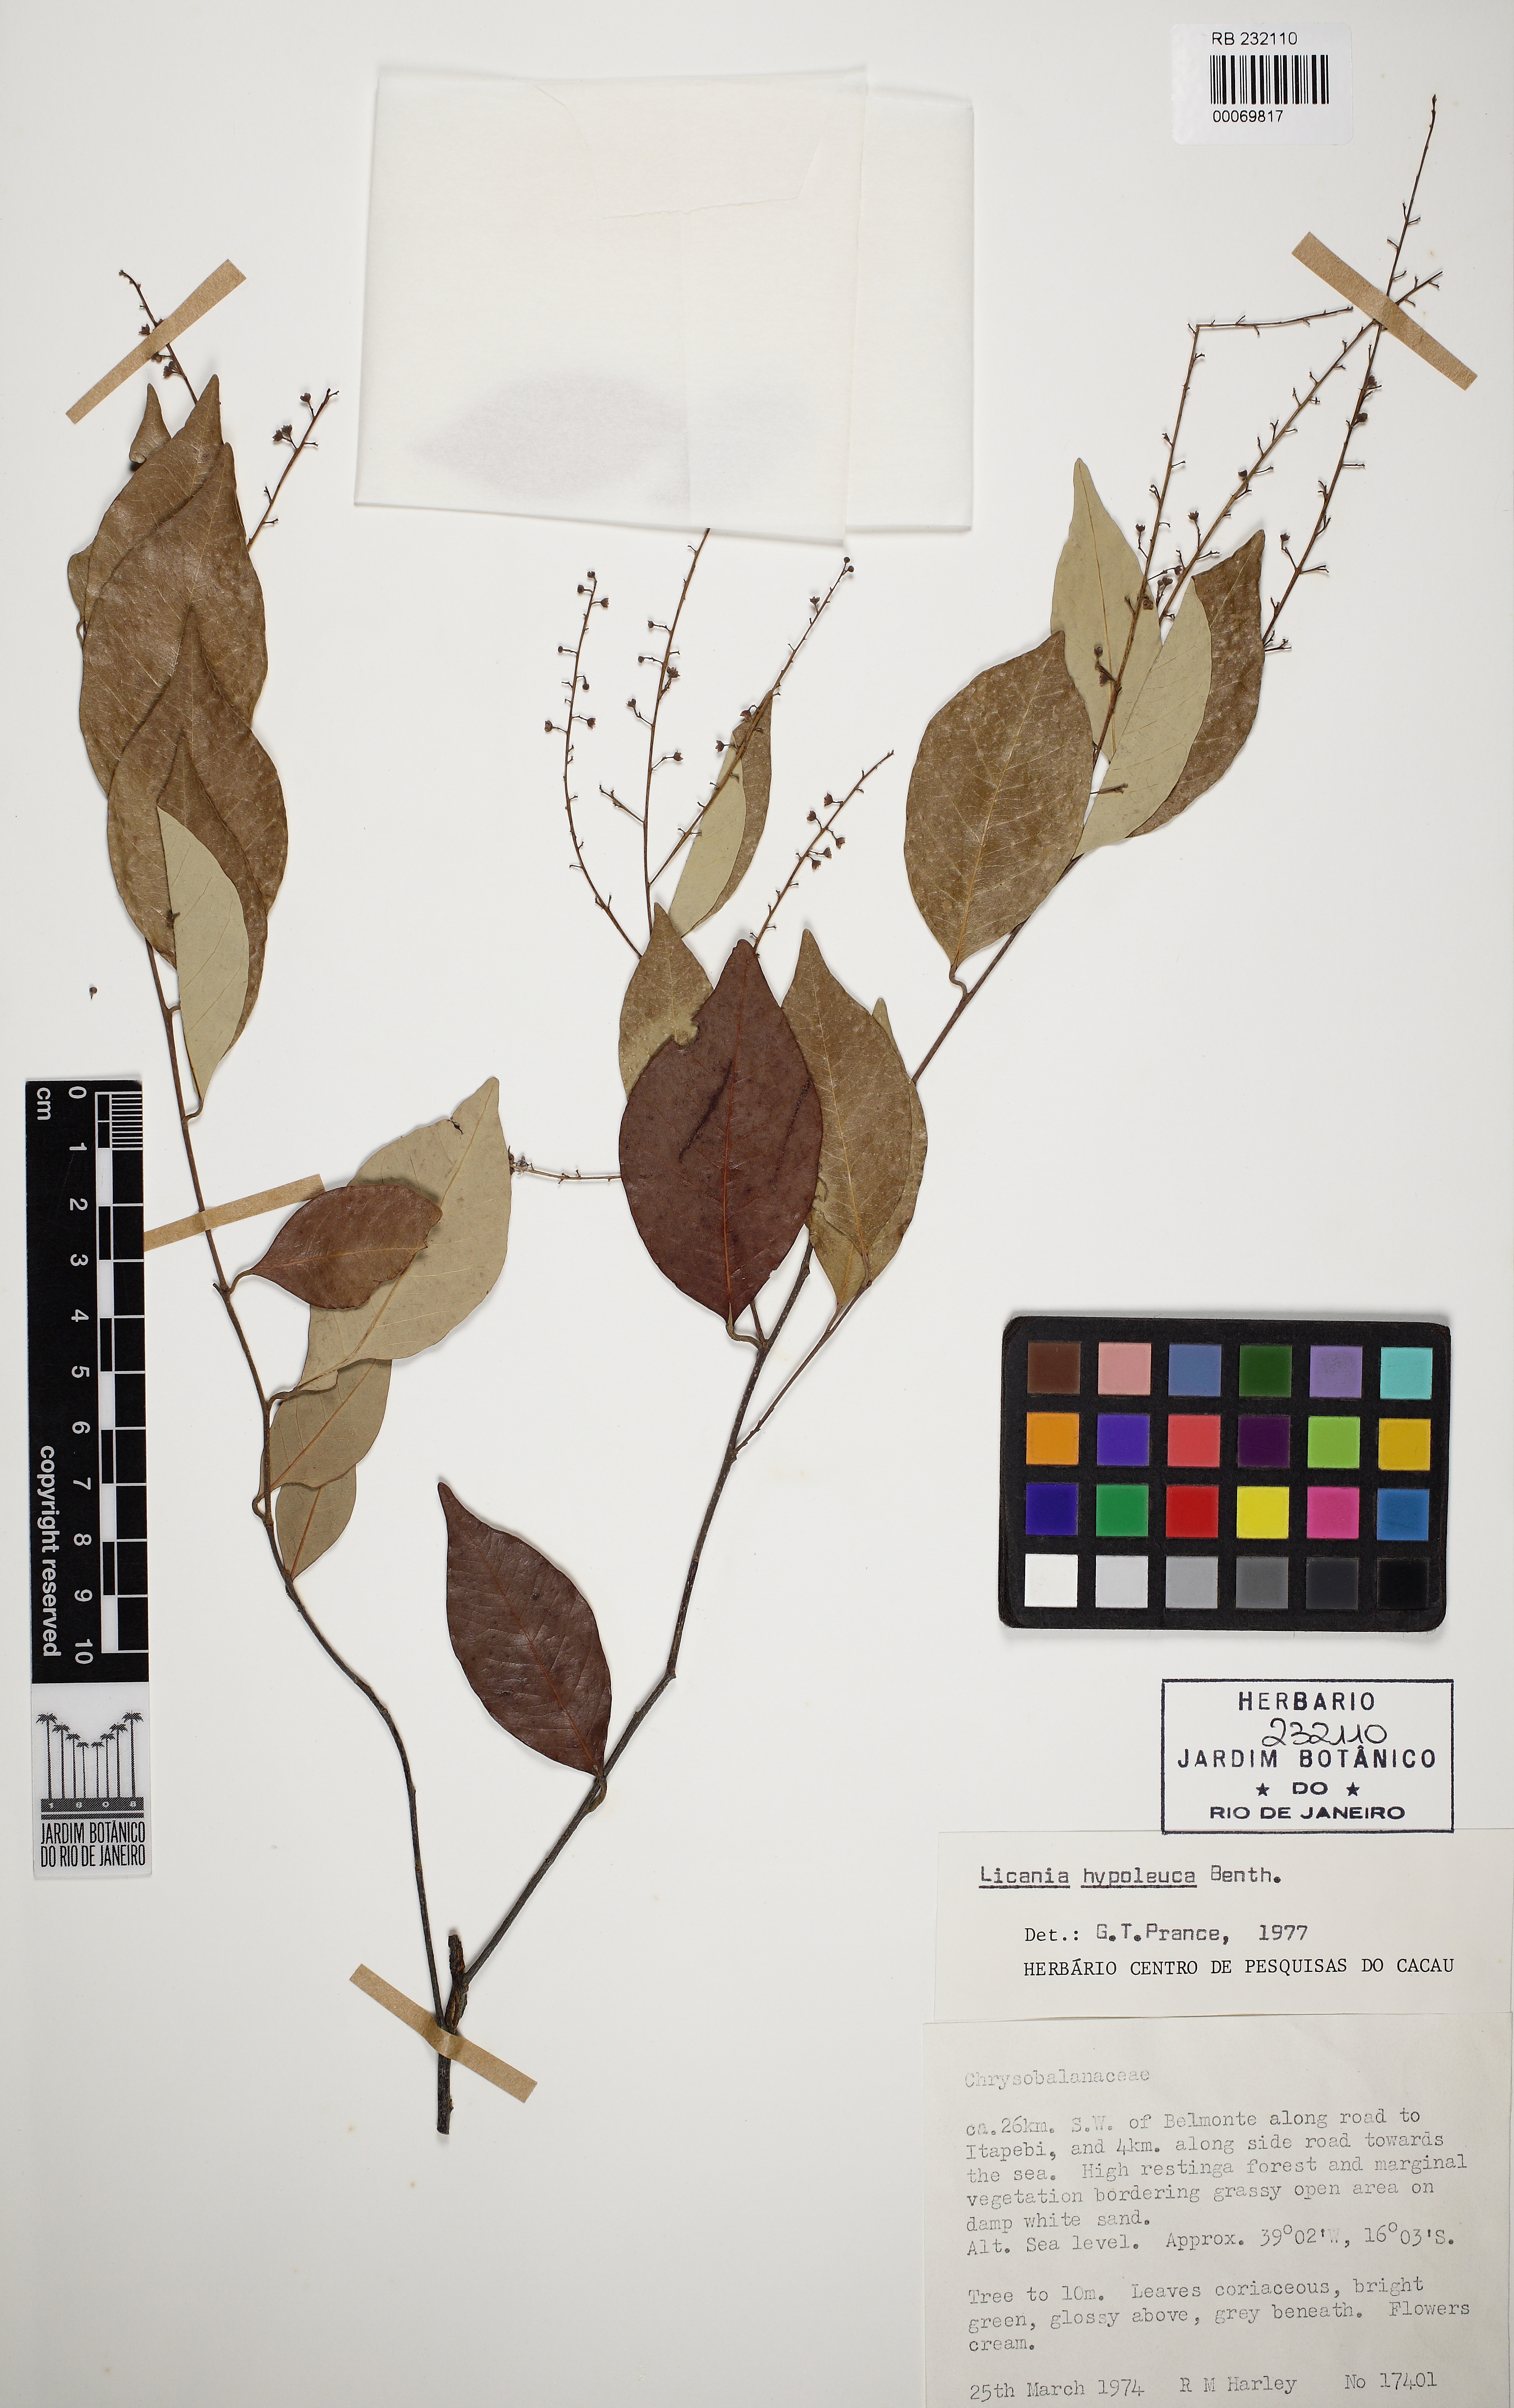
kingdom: Plantae
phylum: Tracheophyta
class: Magnoliopsida
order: Malpighiales
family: Chrysobalanaceae
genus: Licania
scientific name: Licania hypoleuca
